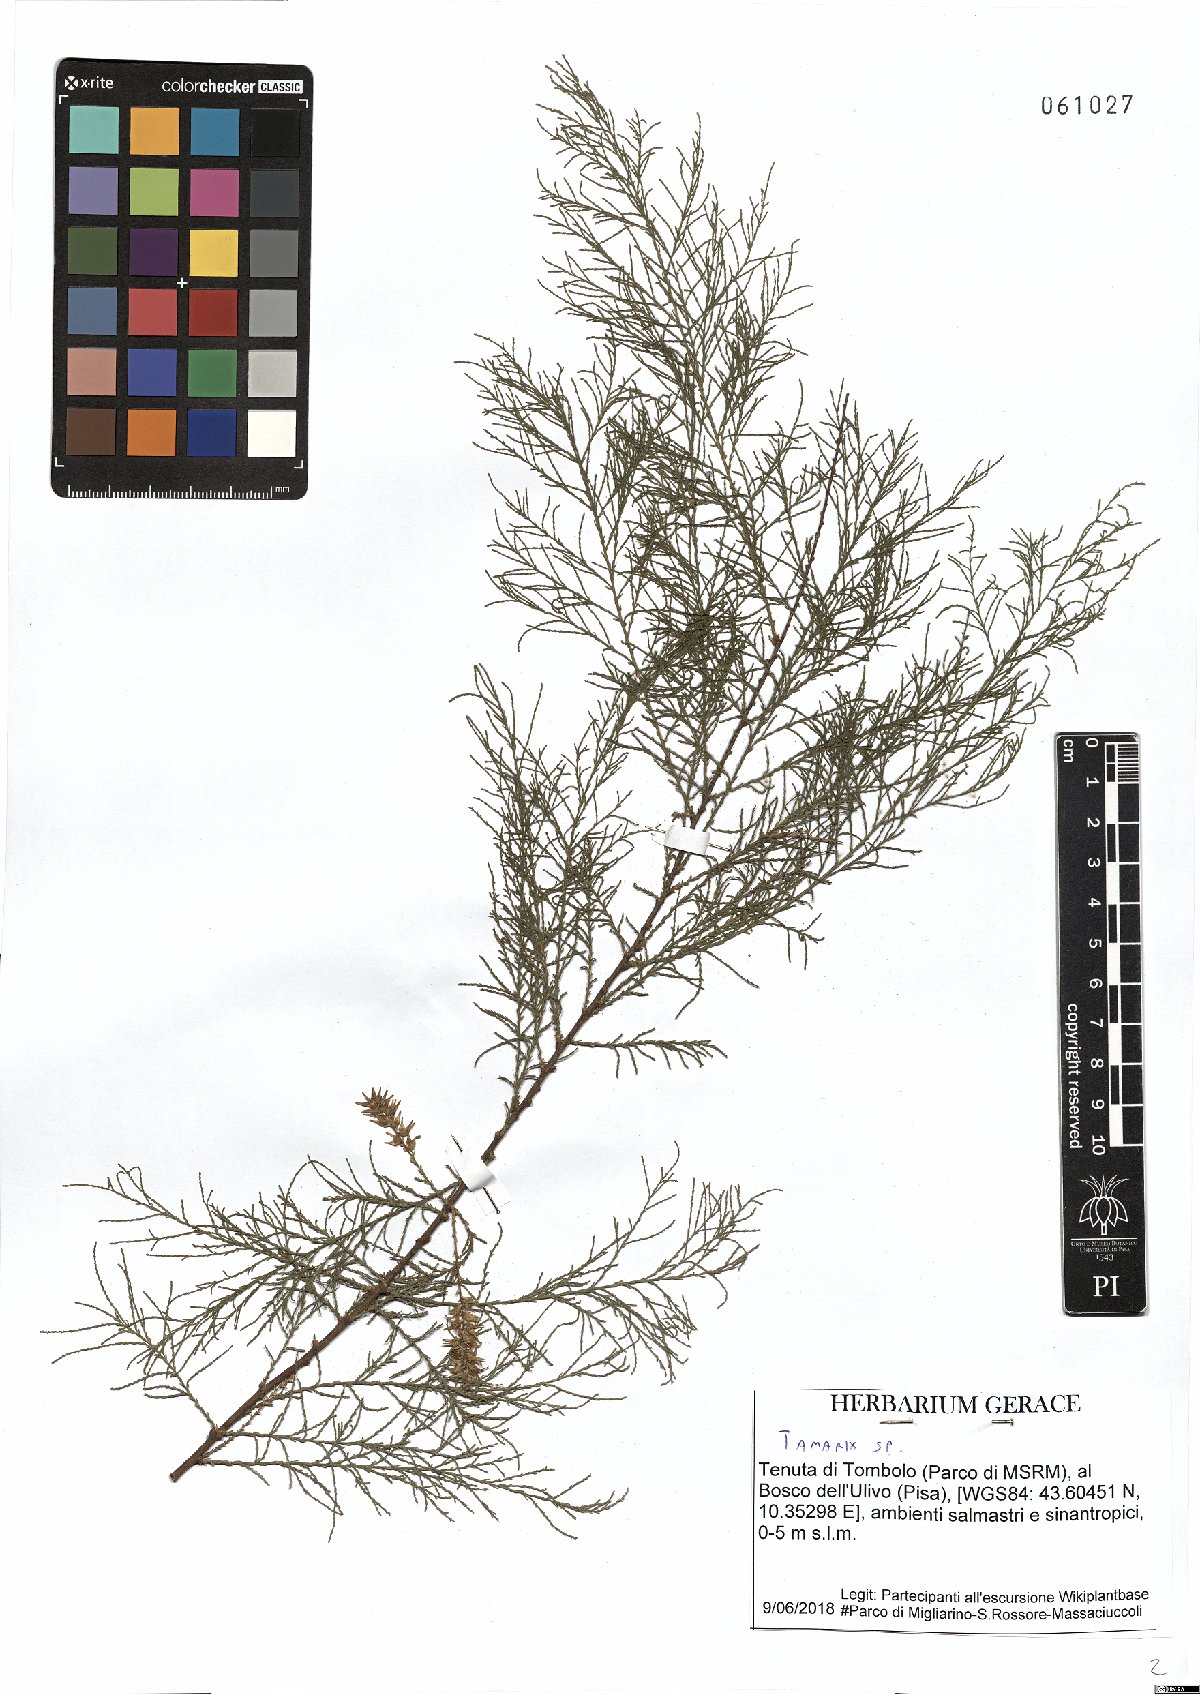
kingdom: Plantae
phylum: Tracheophyta
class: Magnoliopsida
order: Caryophyllales
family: Tamaricaceae
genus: Tamarix
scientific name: Tamarix
